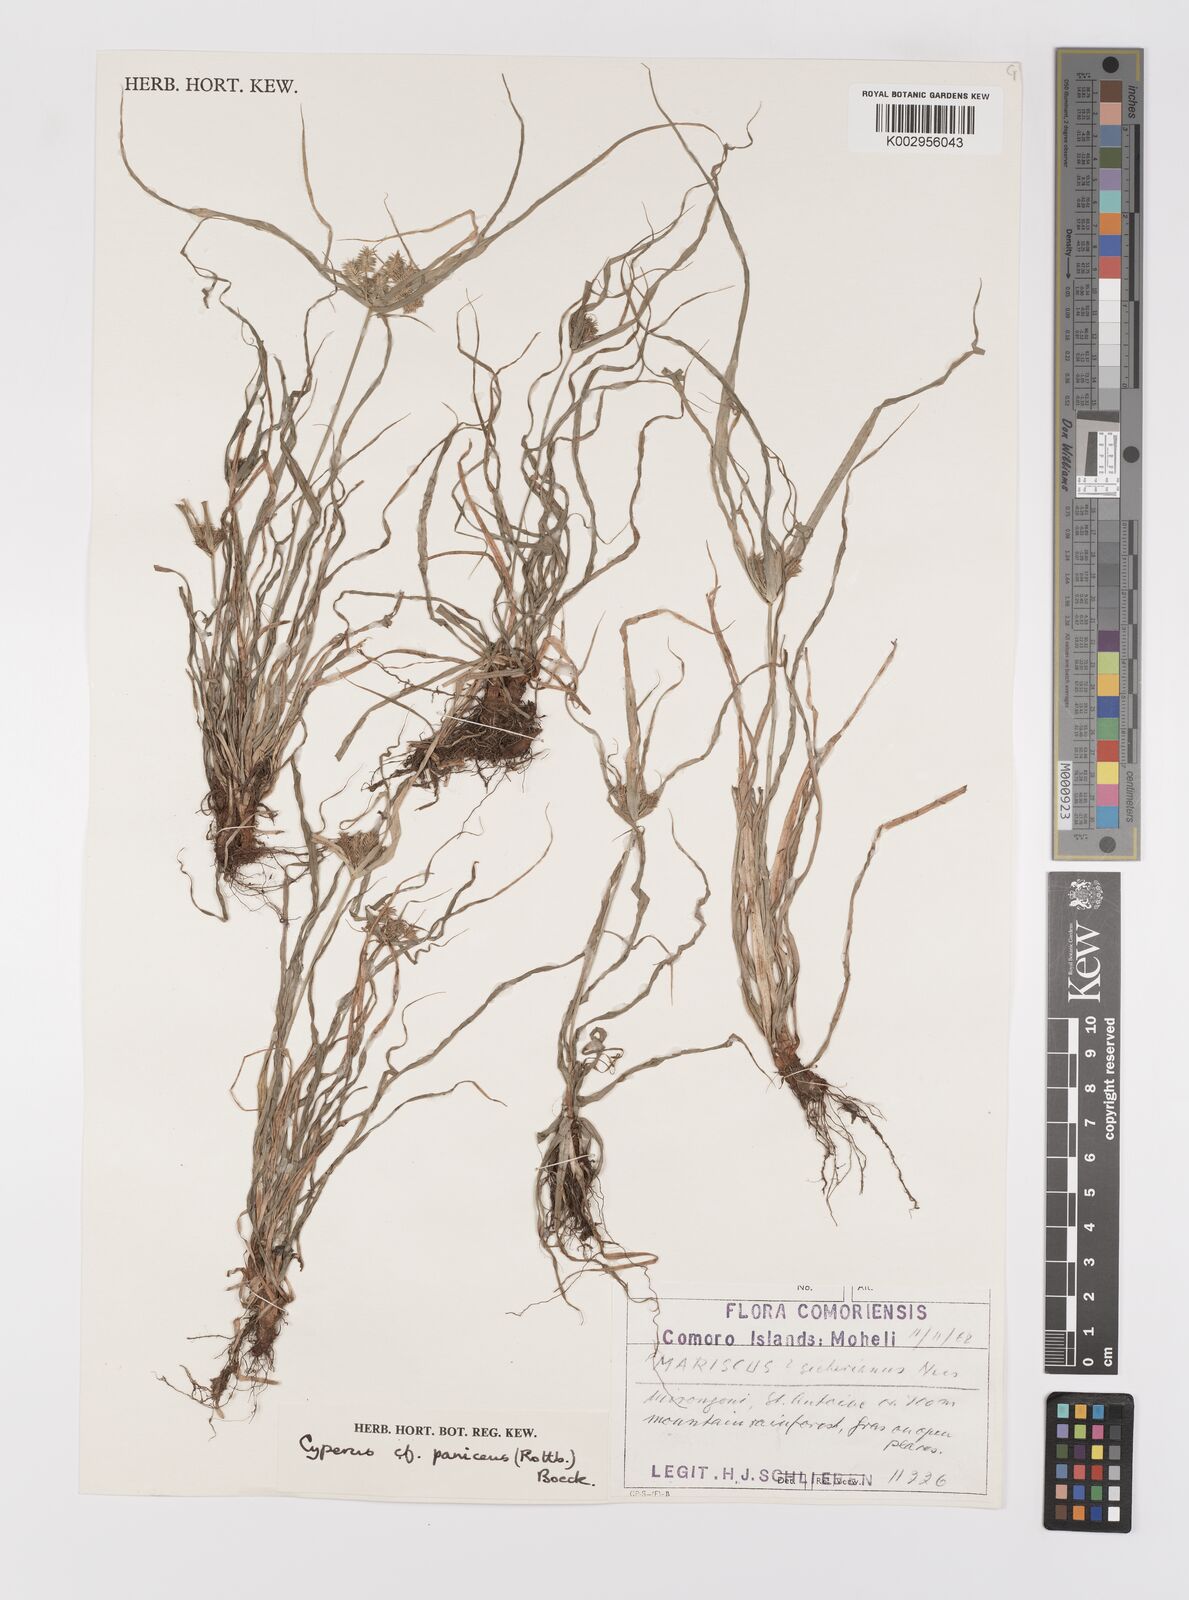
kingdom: Plantae
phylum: Tracheophyta
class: Liliopsida
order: Poales
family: Cyperaceae
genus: Cyperus
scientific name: Cyperus paniceus
